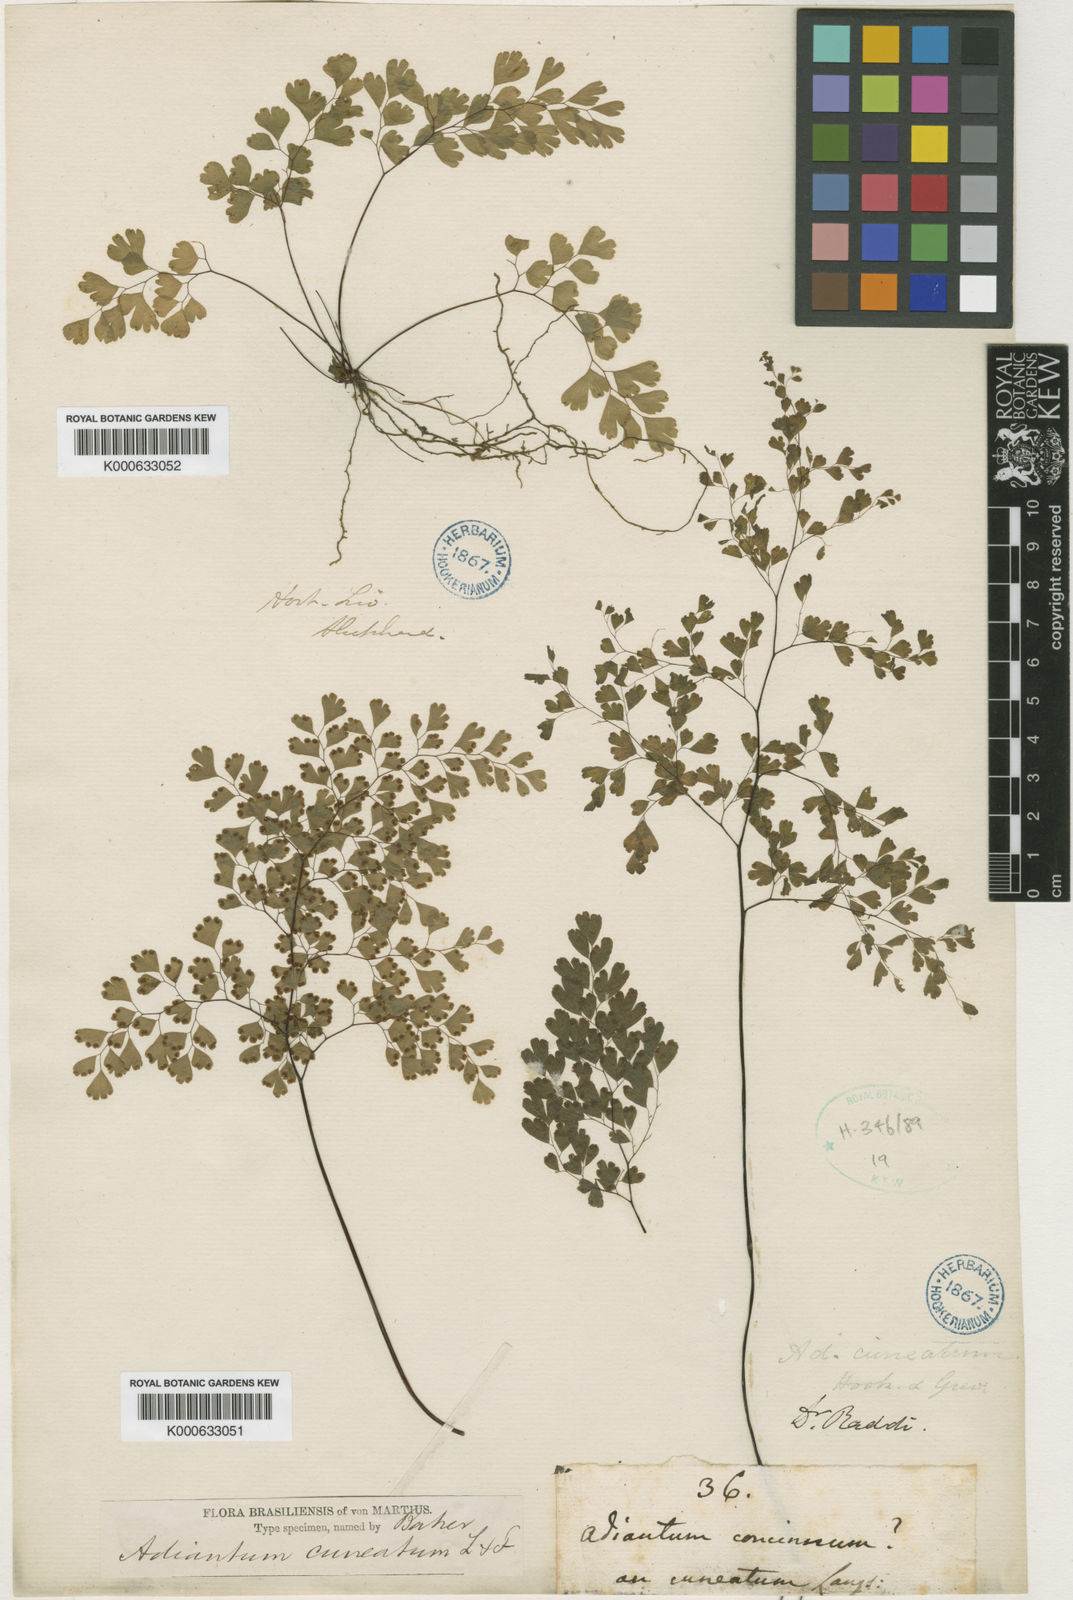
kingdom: Plantae
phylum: Tracheophyta
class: Polypodiopsida
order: Polypodiales
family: Pteridaceae
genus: Adiantum
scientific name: Adiantum raddianum
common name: Delta maidenhair fern
